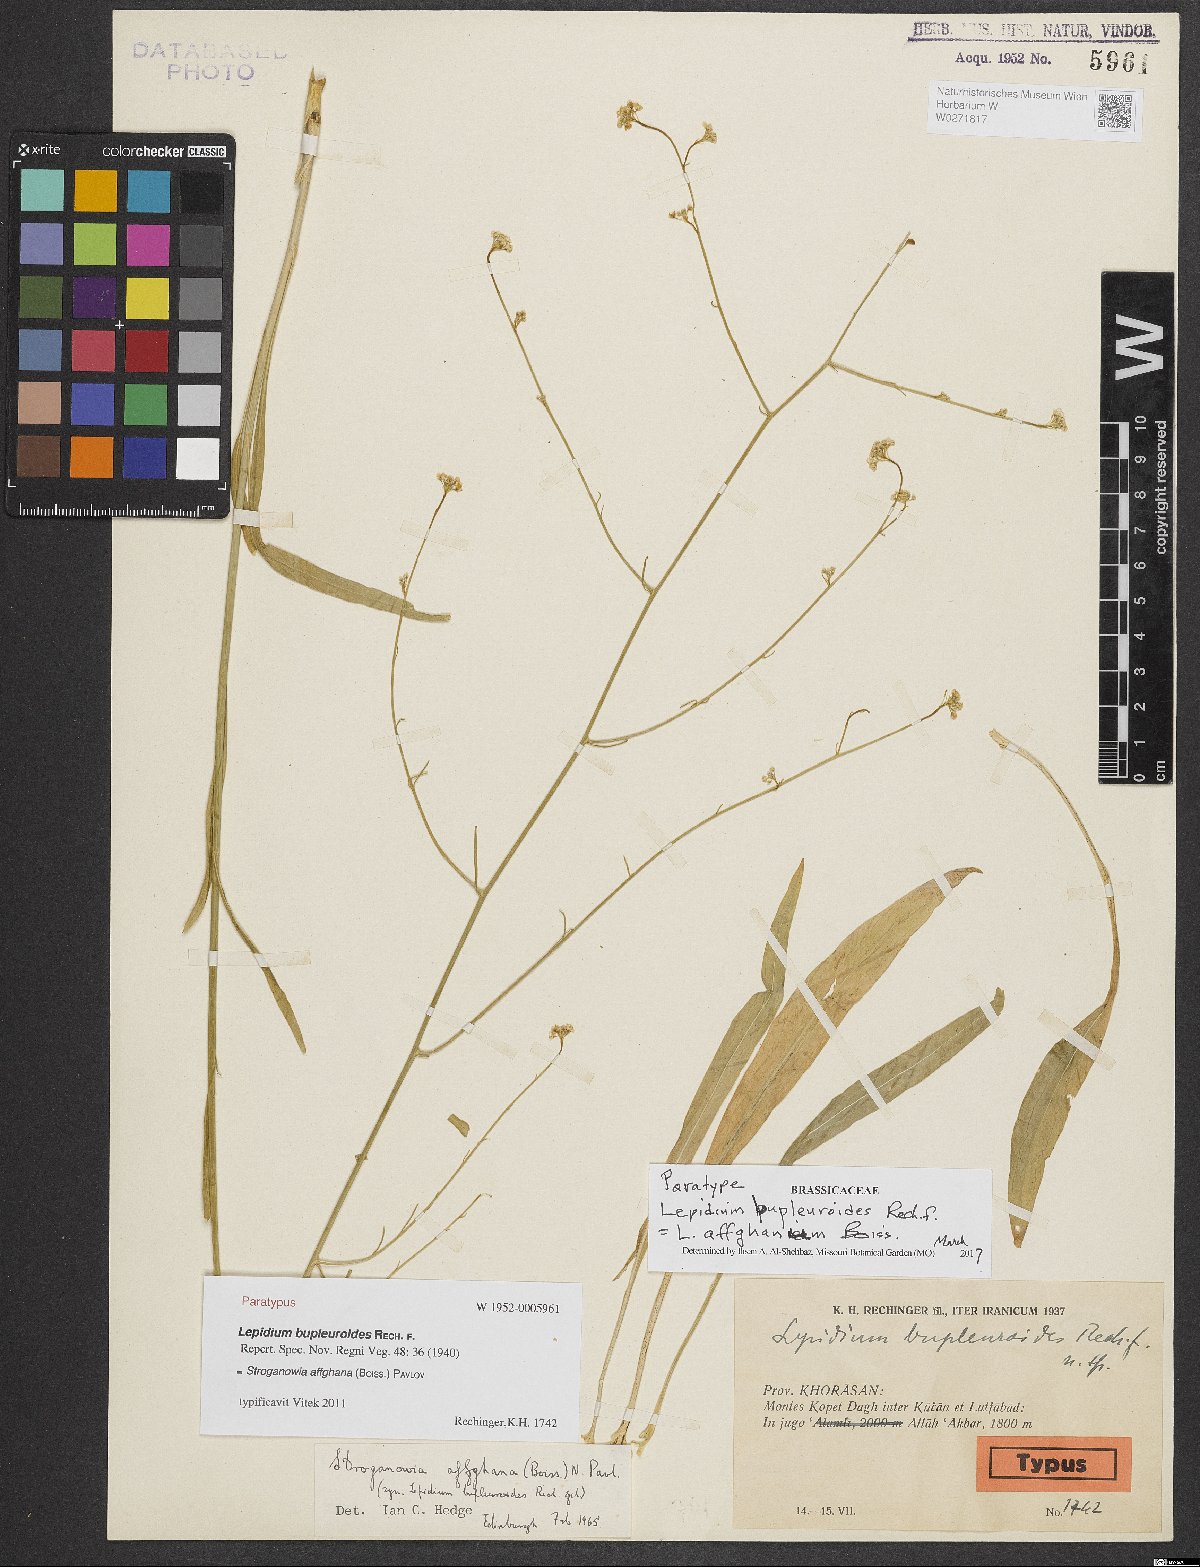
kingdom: Plantae
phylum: Tracheophyta
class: Magnoliopsida
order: Brassicales
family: Brassicaceae
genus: Lepidium
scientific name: Lepidium bupleuroides
